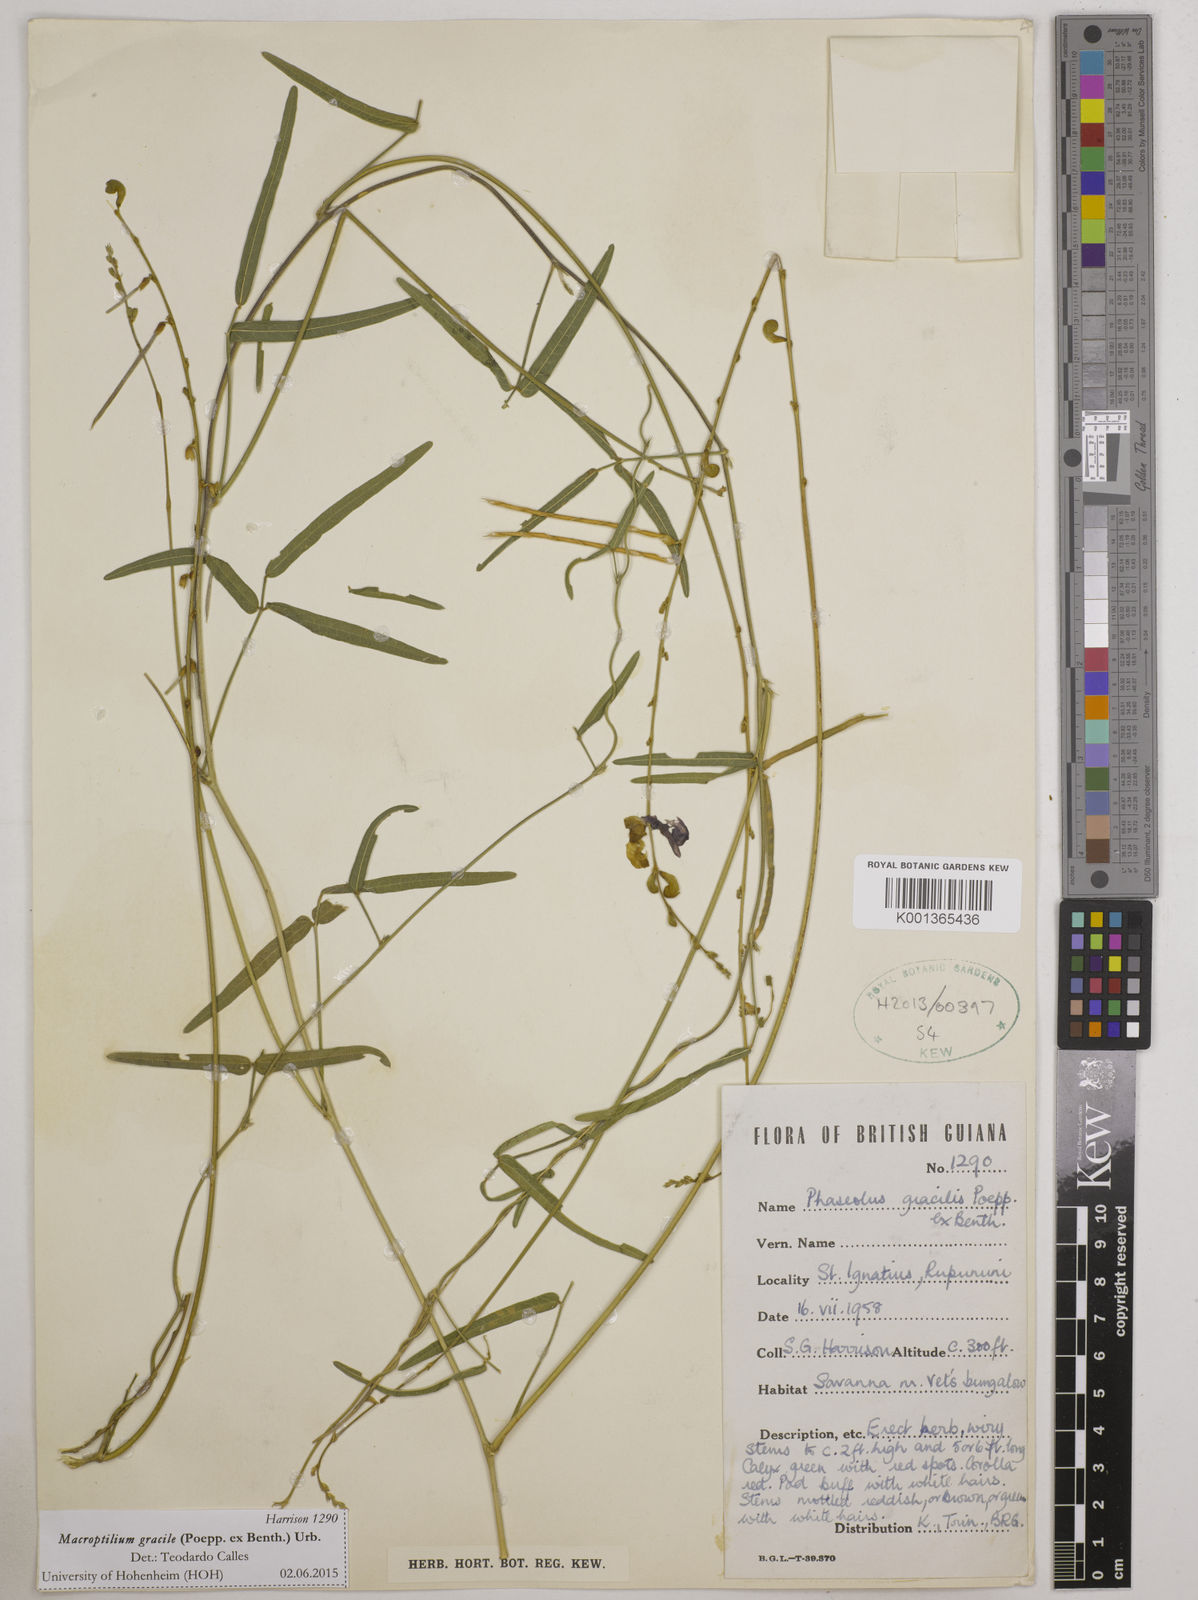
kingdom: Plantae
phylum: Tracheophyta
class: Magnoliopsida
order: Fabales
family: Fabaceae
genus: Macroptilium
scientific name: Macroptilium gracile
